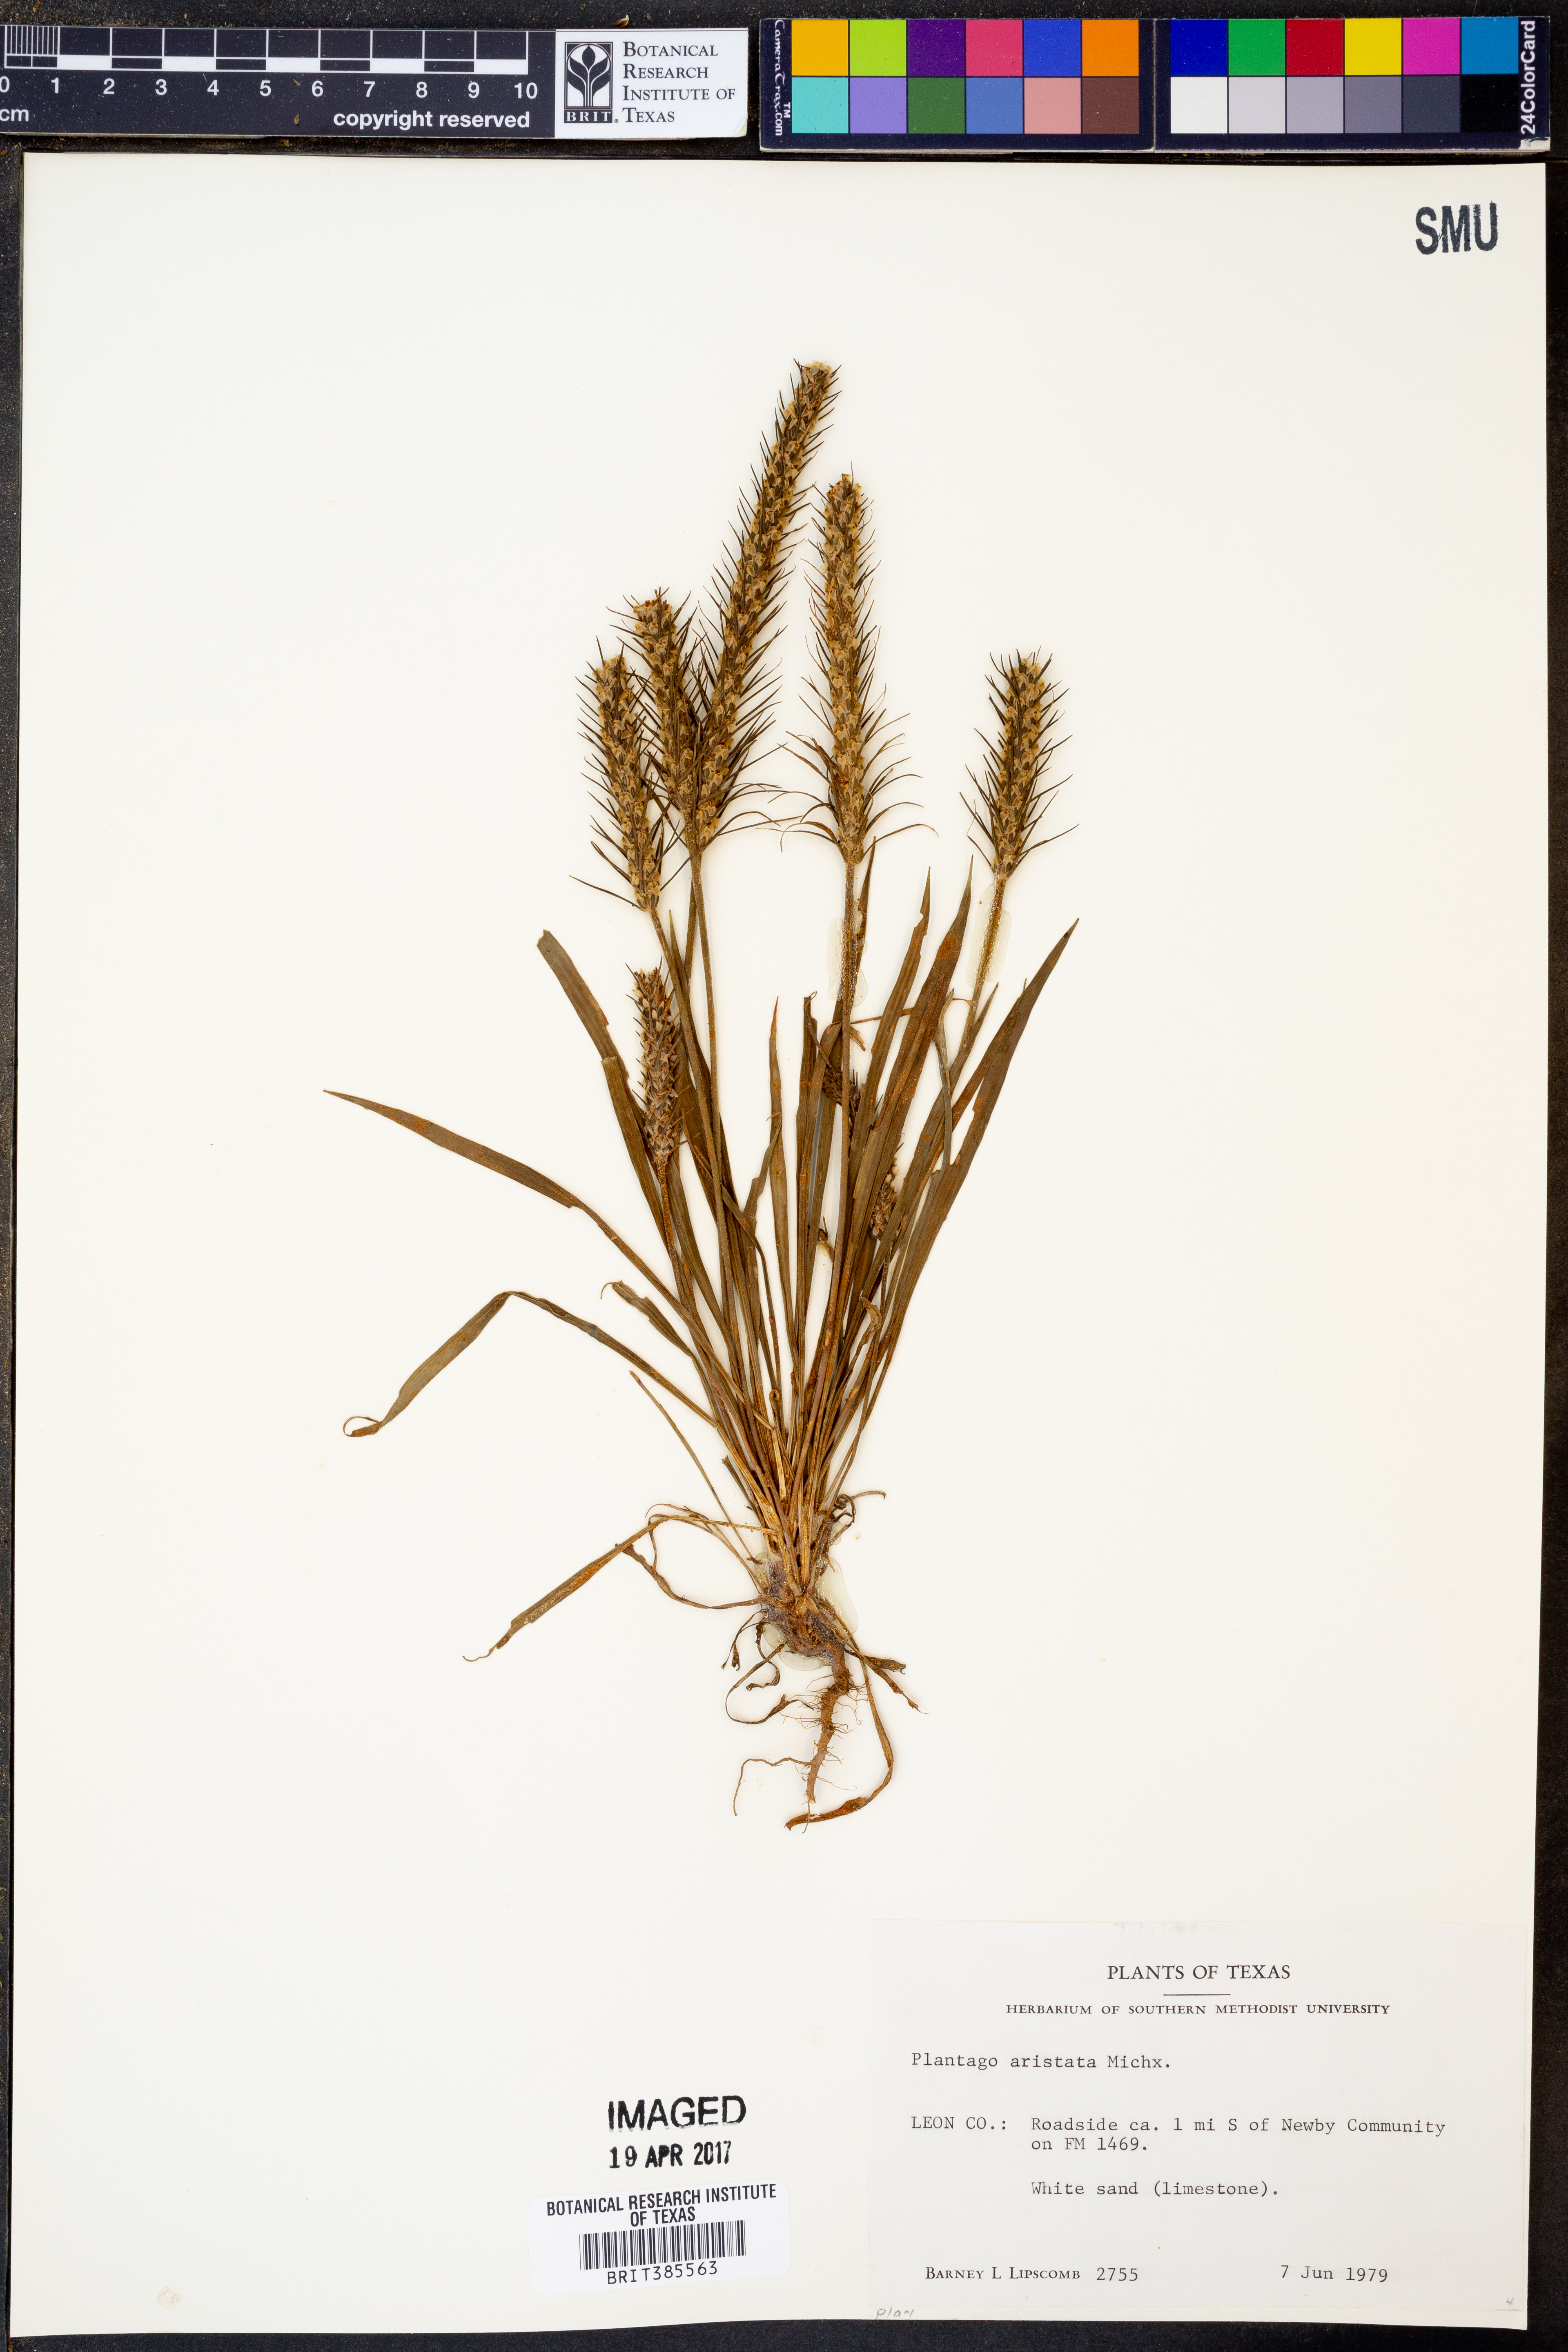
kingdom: Plantae
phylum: Tracheophyta
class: Magnoliopsida
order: Lamiales
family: Plantaginaceae
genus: Plantago
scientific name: Plantago aristata
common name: Bracted plantain
